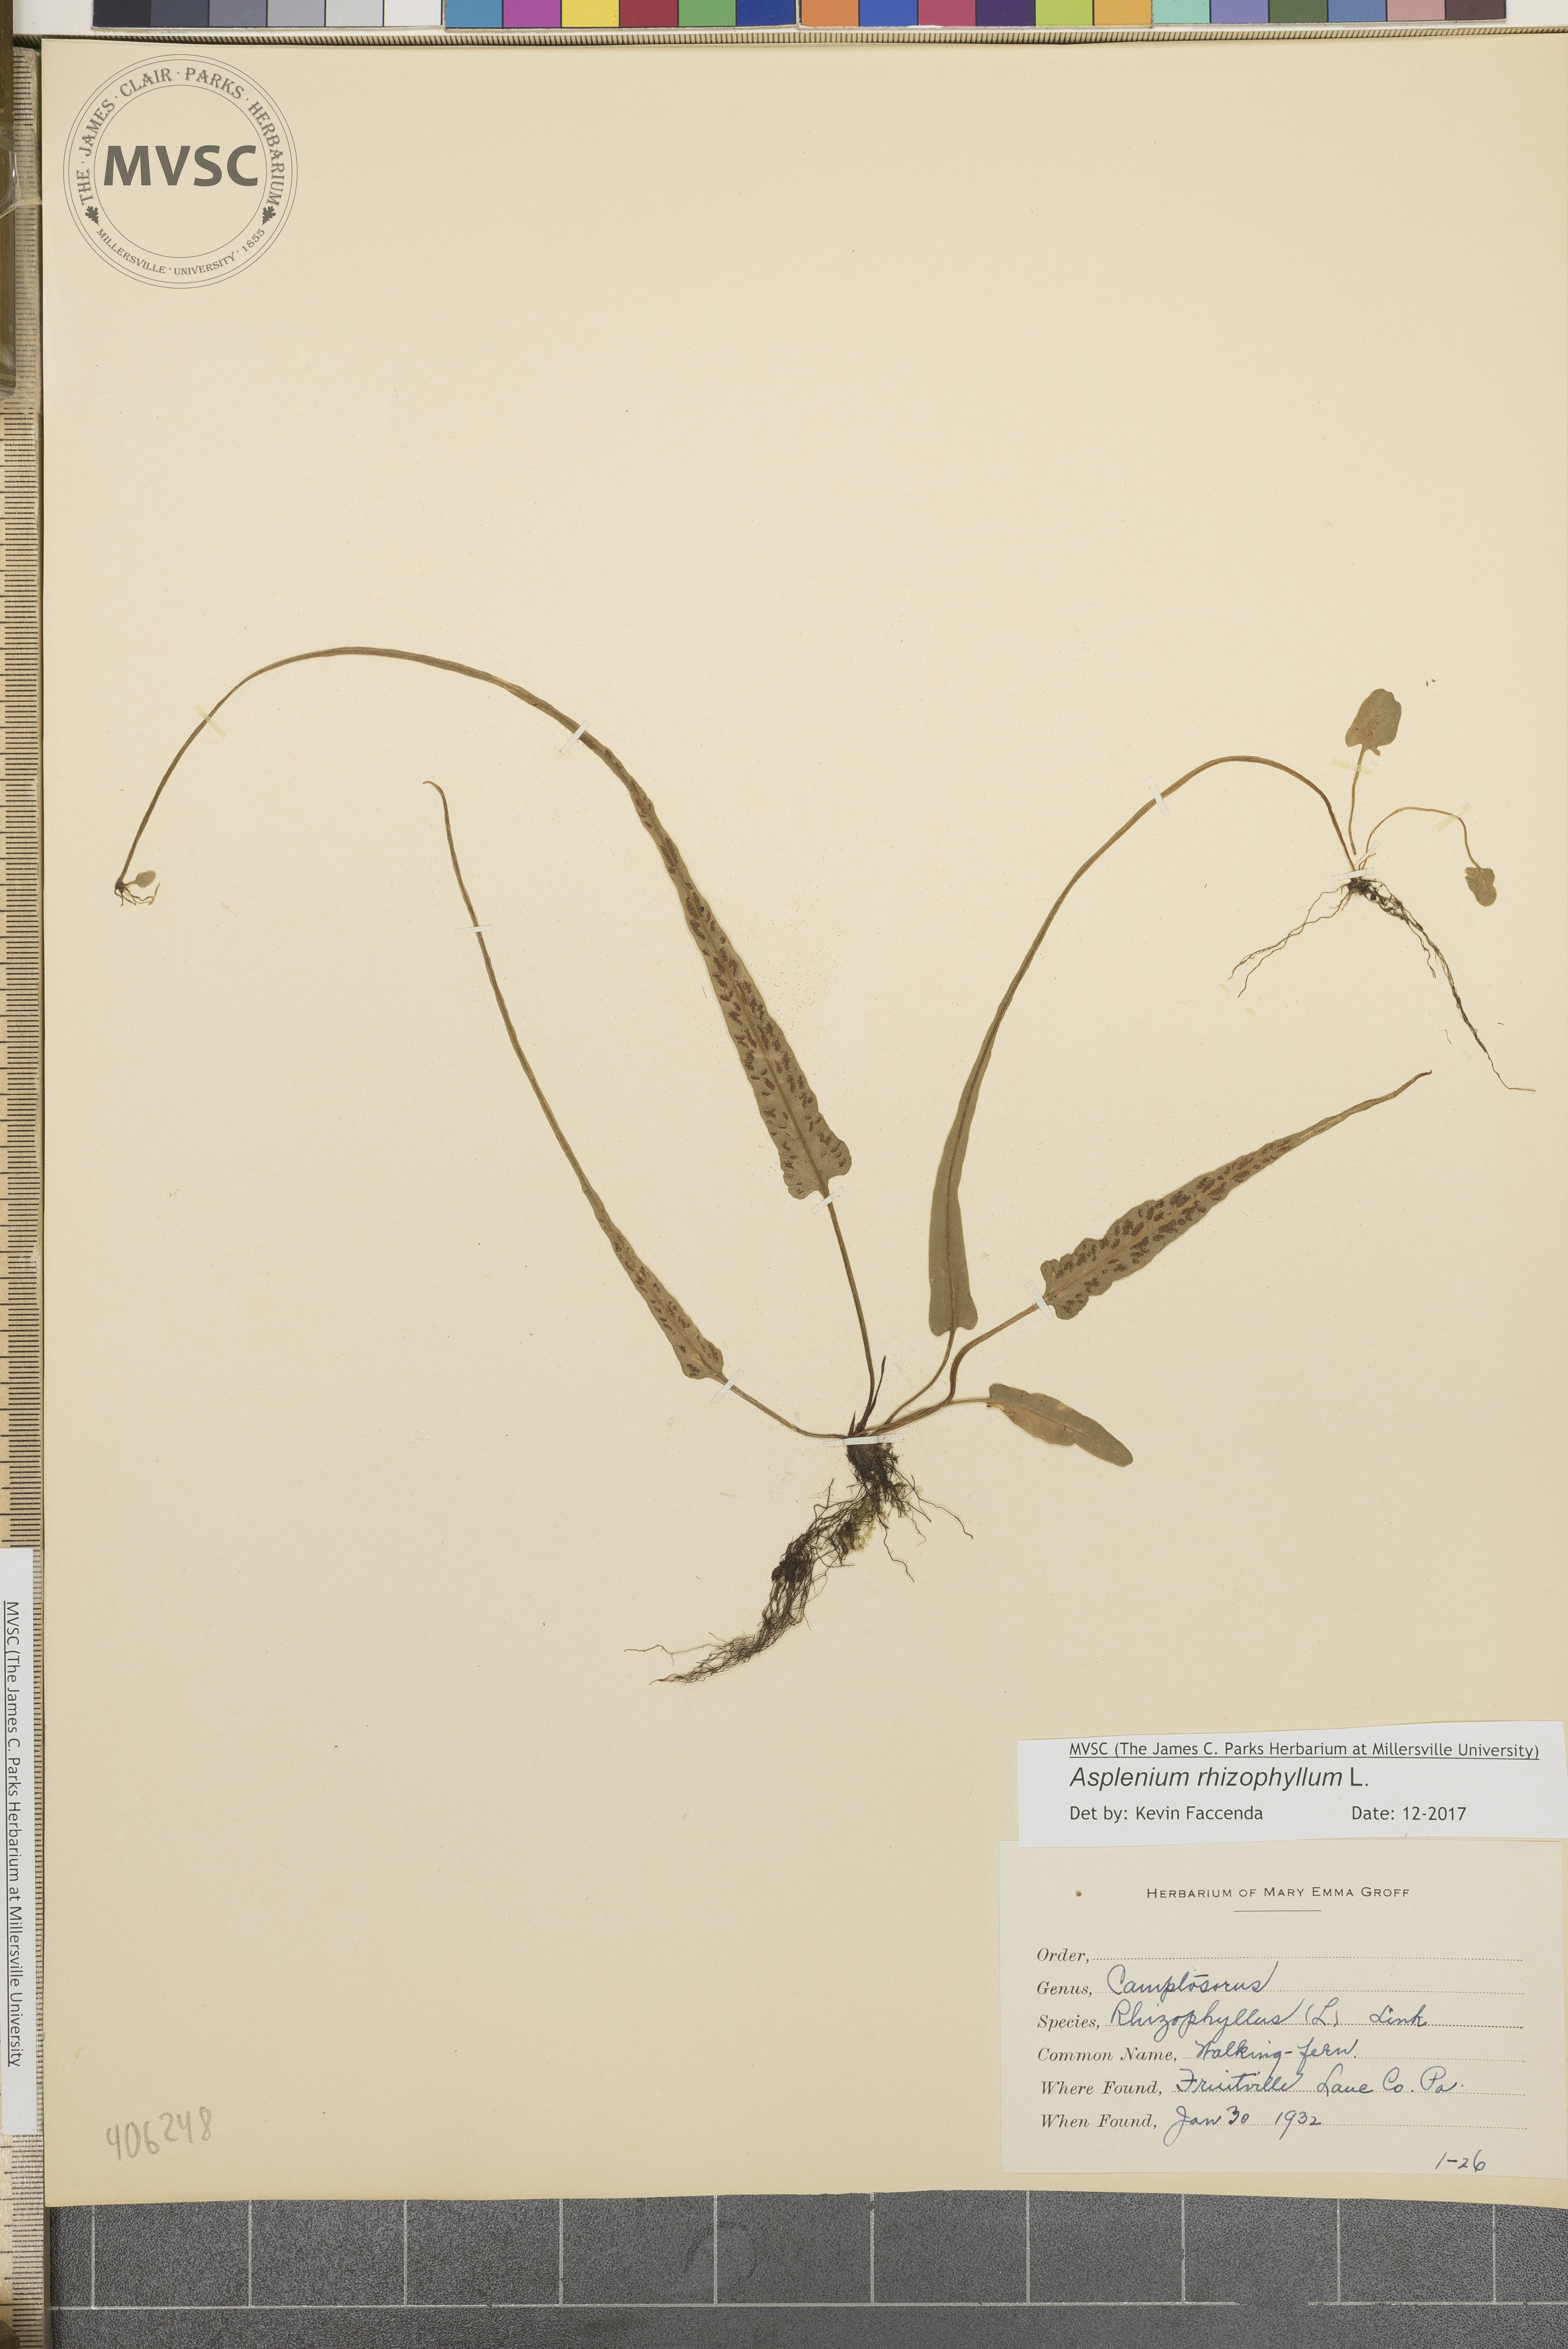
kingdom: Plantae
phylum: Tracheophyta
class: Polypodiopsida
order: Polypodiales
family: Aspleniaceae
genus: Asplenium
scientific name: Asplenium rhizophyllum
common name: Walking fern
